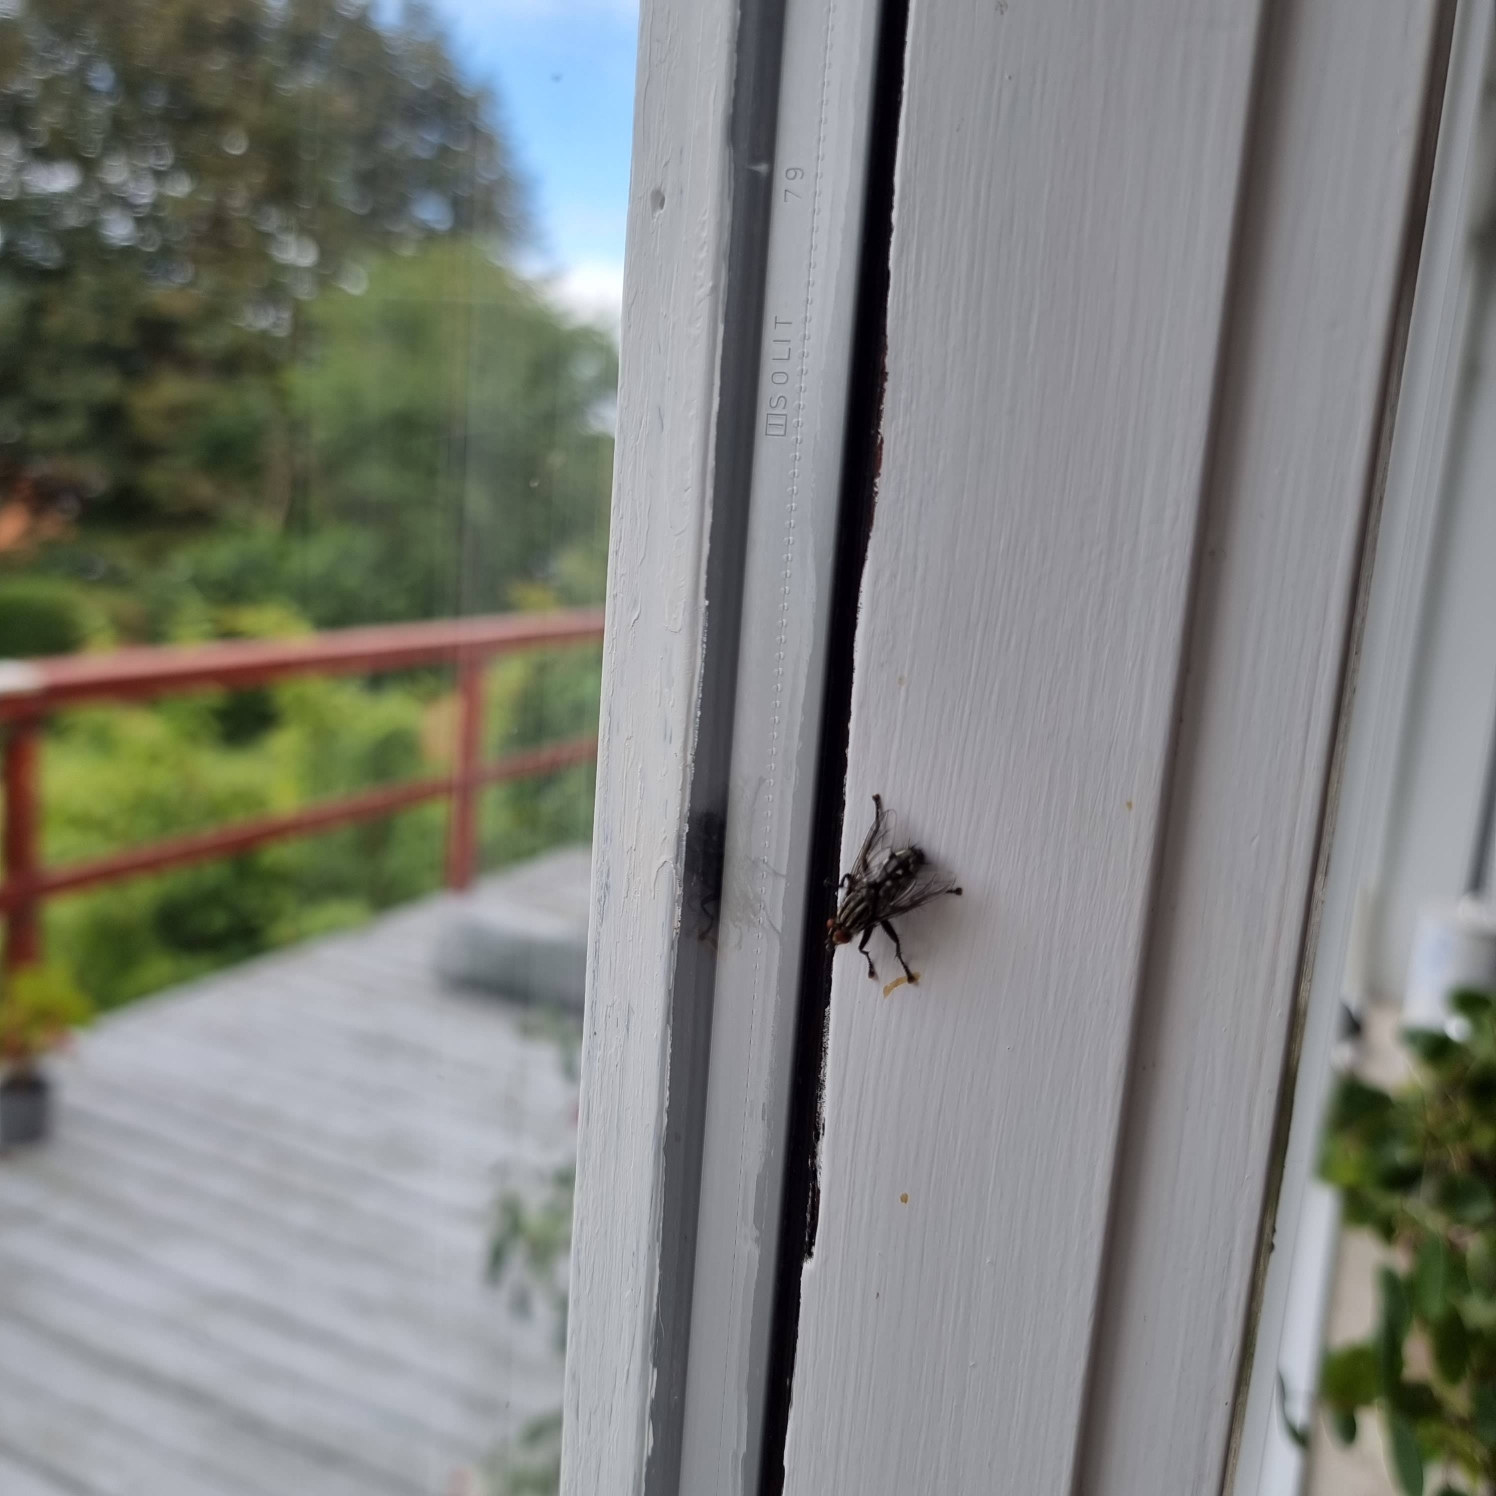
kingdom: Animalia
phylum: Arthropoda
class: Insecta
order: Diptera
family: Sarcophagidae
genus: Sarcophaga
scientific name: Sarcophaga
